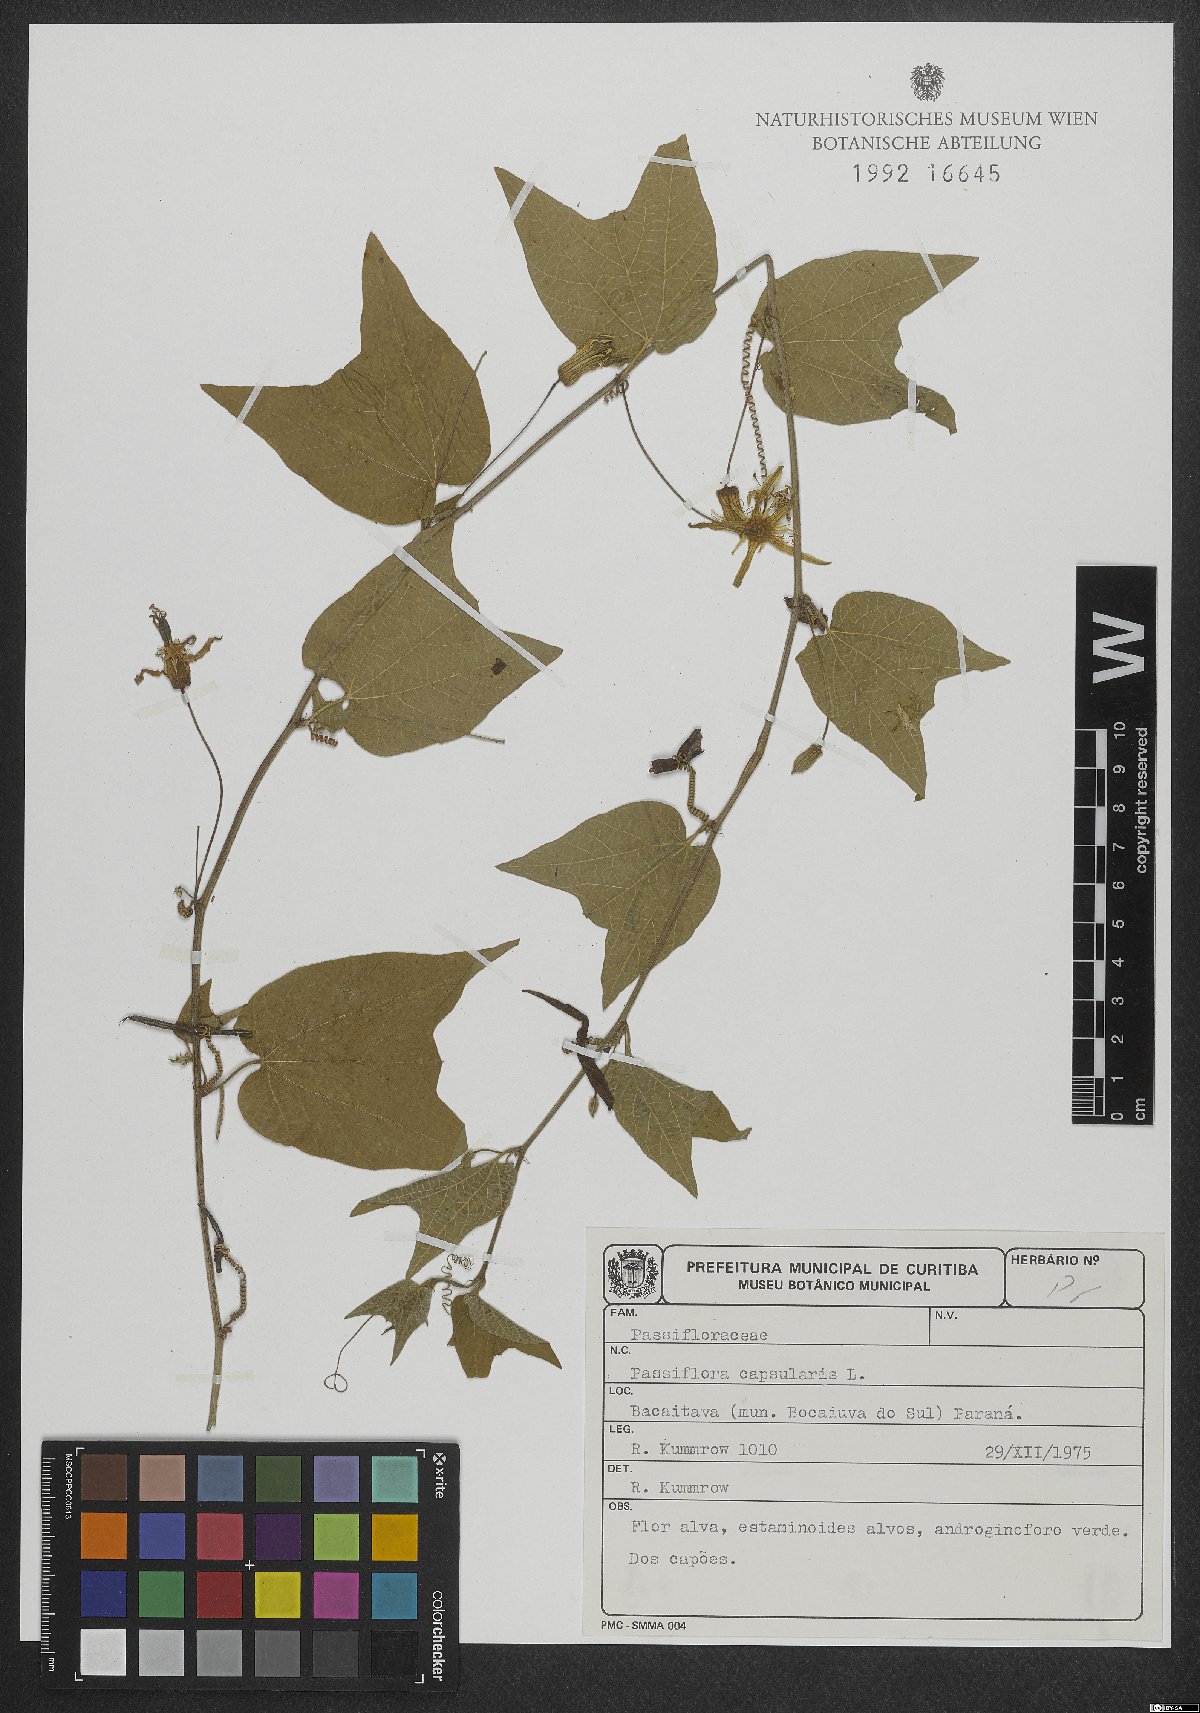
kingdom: Plantae
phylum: Tracheophyta
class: Magnoliopsida
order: Malpighiales
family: Passifloraceae
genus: Passiflora
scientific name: Passiflora capsularis
